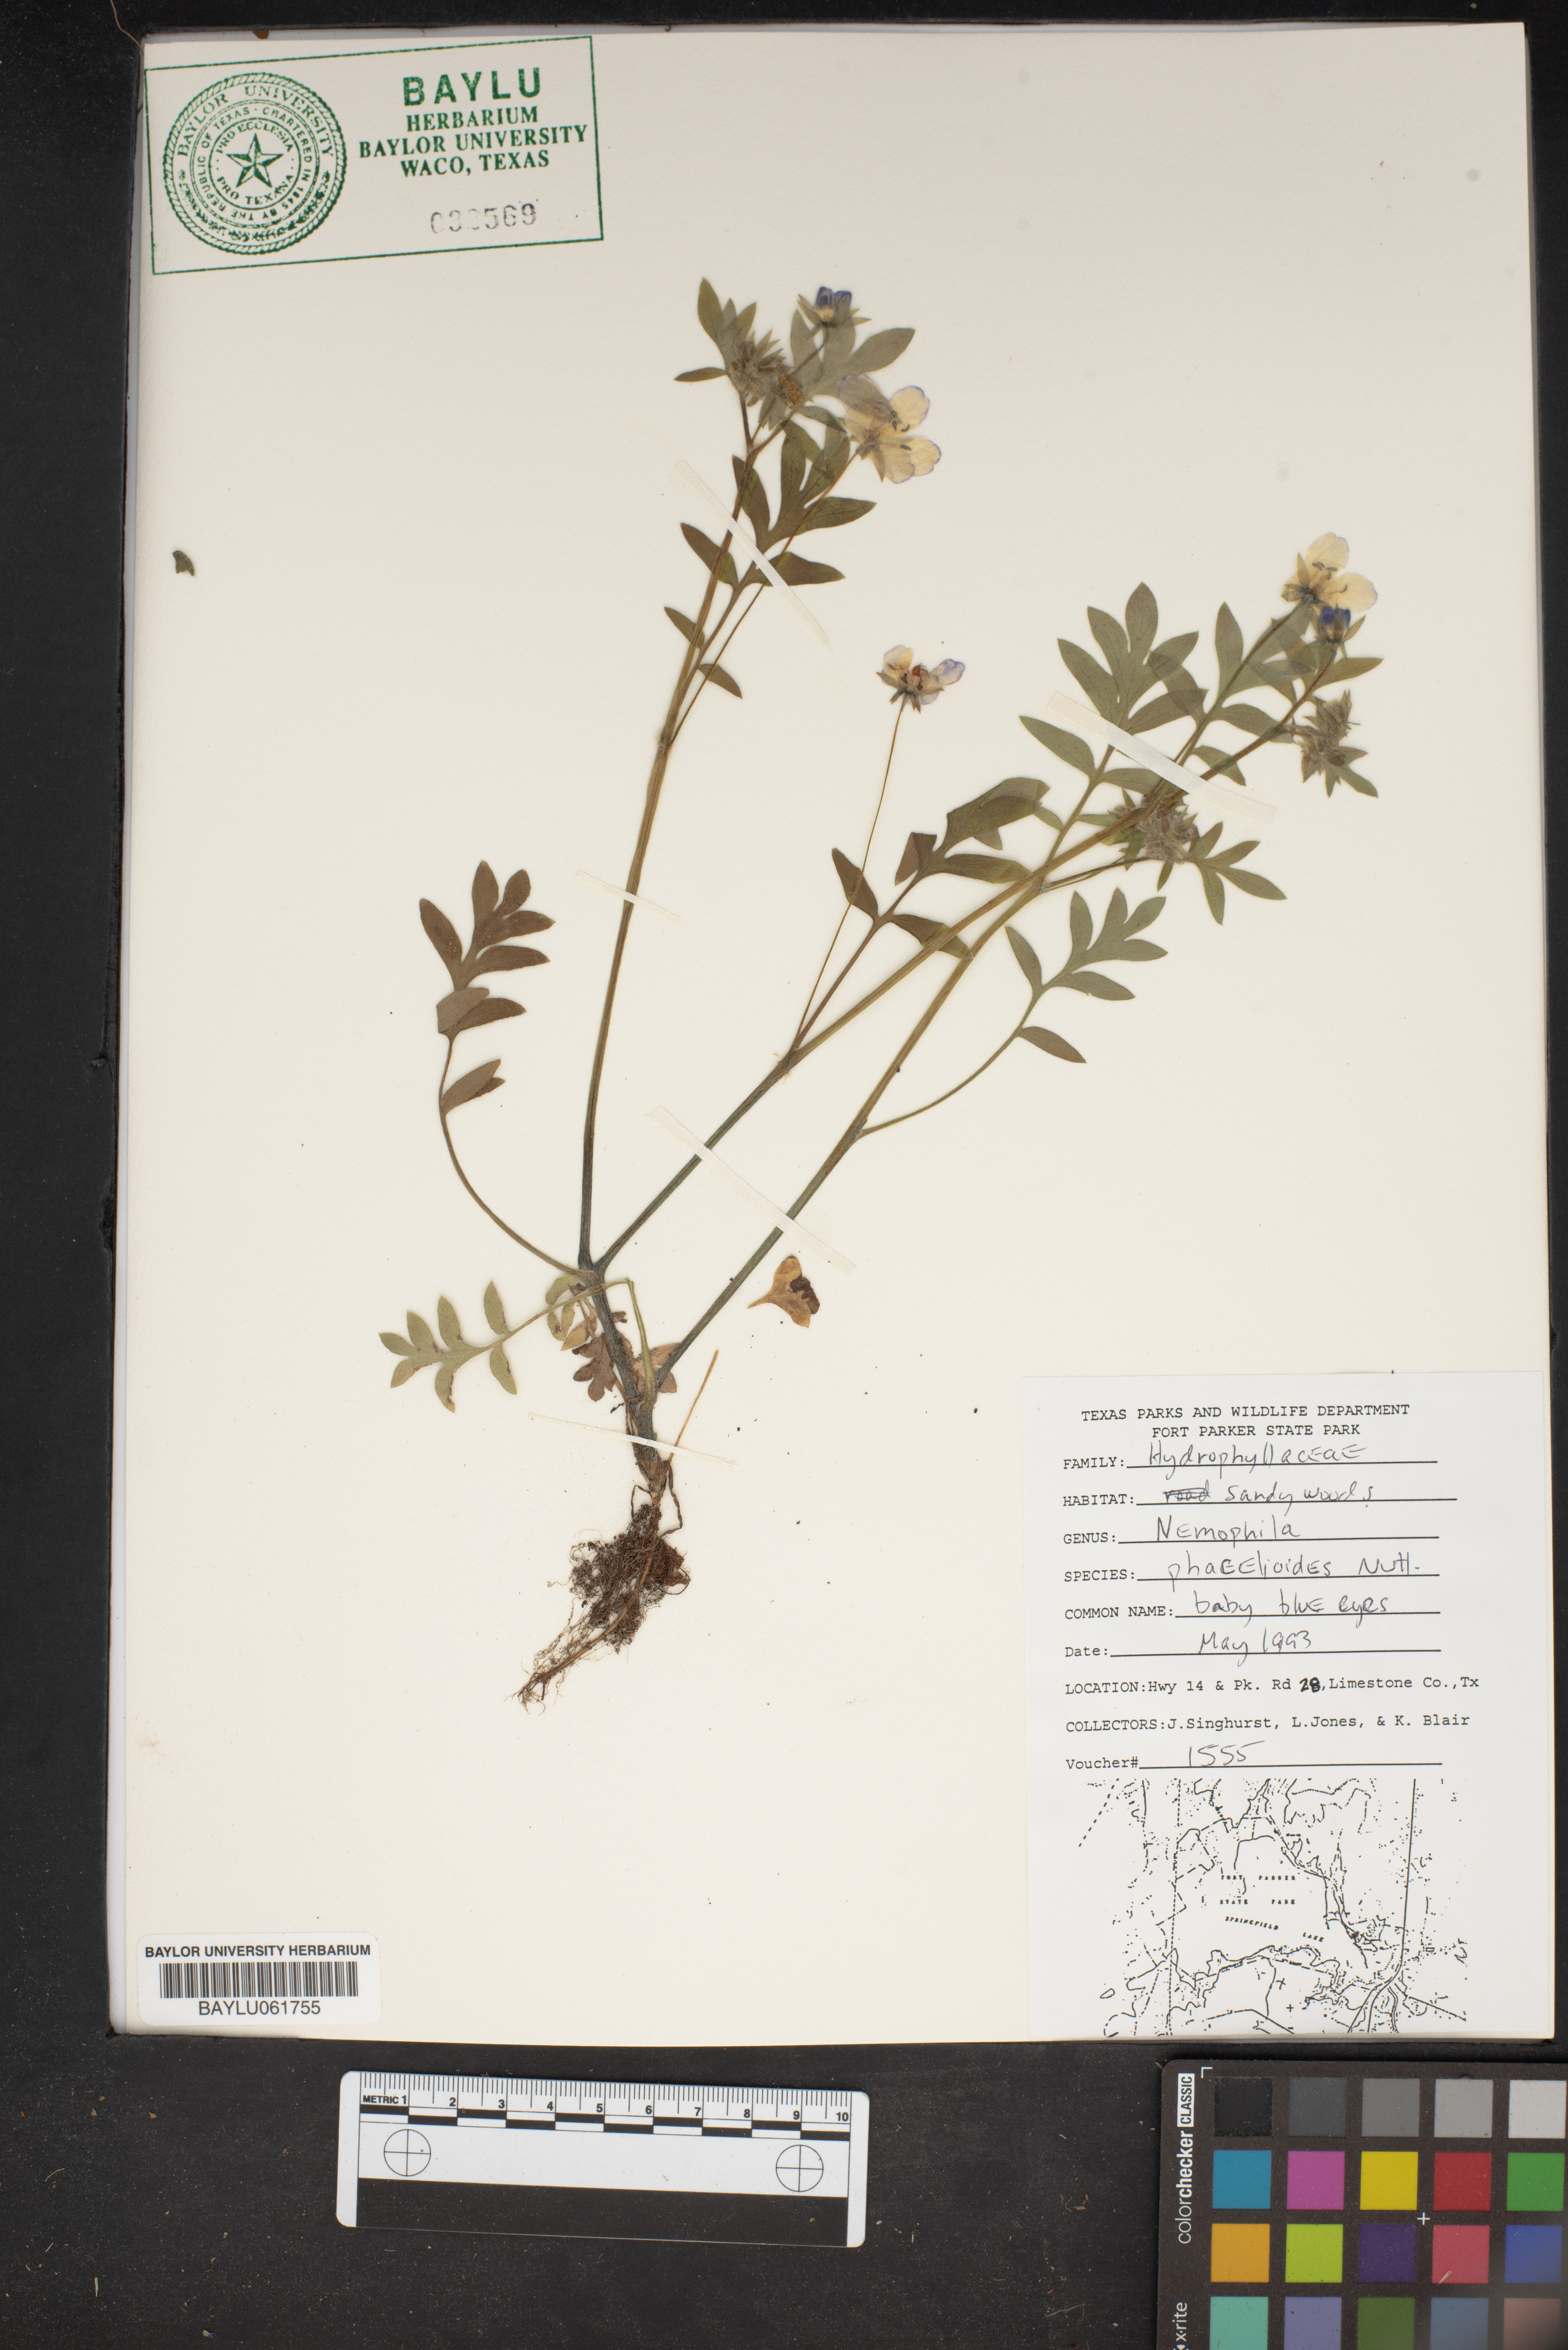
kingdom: Plantae
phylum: Tracheophyta
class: Magnoliopsida
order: Boraginales
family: Hydrophyllaceae
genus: Nemophila
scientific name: Nemophila phacelioides
